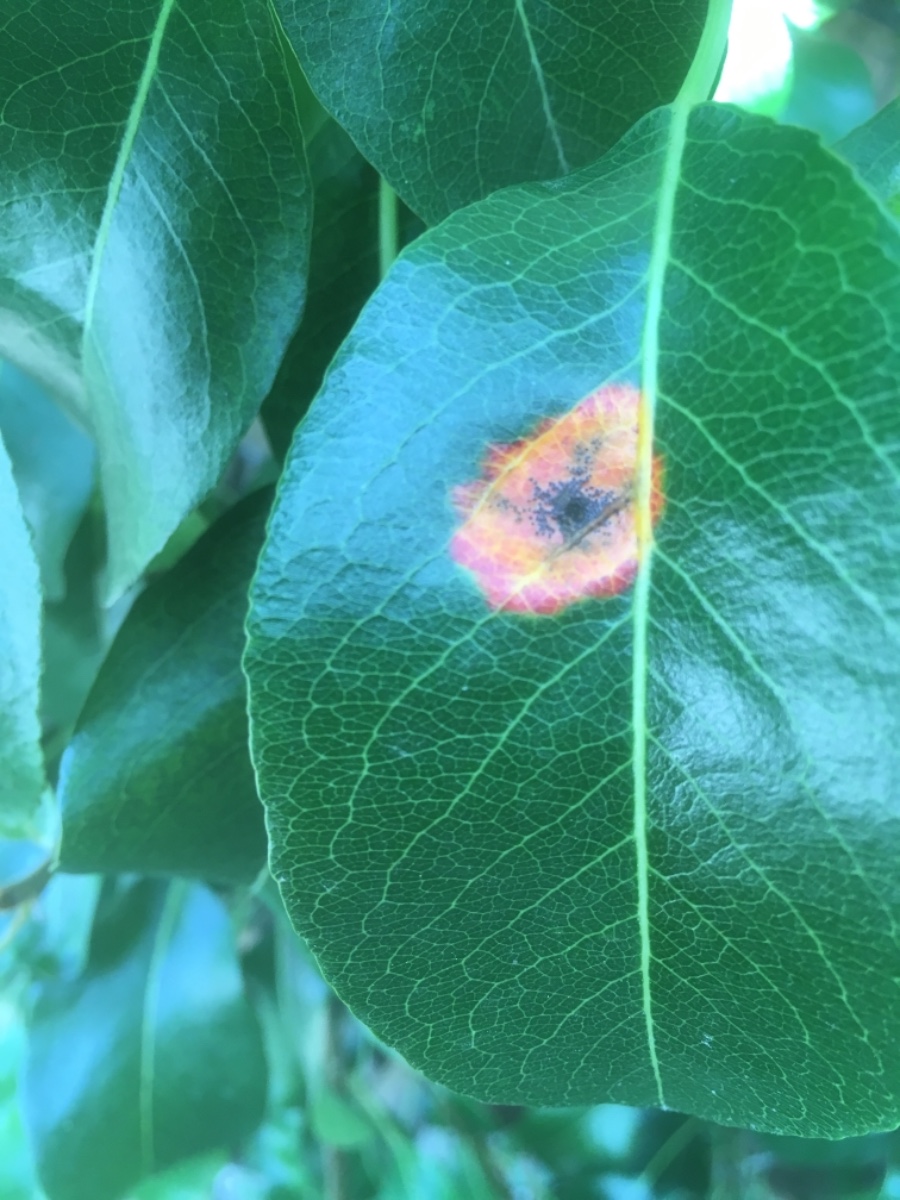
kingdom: Fungi
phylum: Basidiomycota
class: Pucciniomycetes
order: Pucciniales
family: Gymnosporangiaceae
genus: Gymnosporangium
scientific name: Gymnosporangium sabinae
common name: pæregitter-bævrerust
